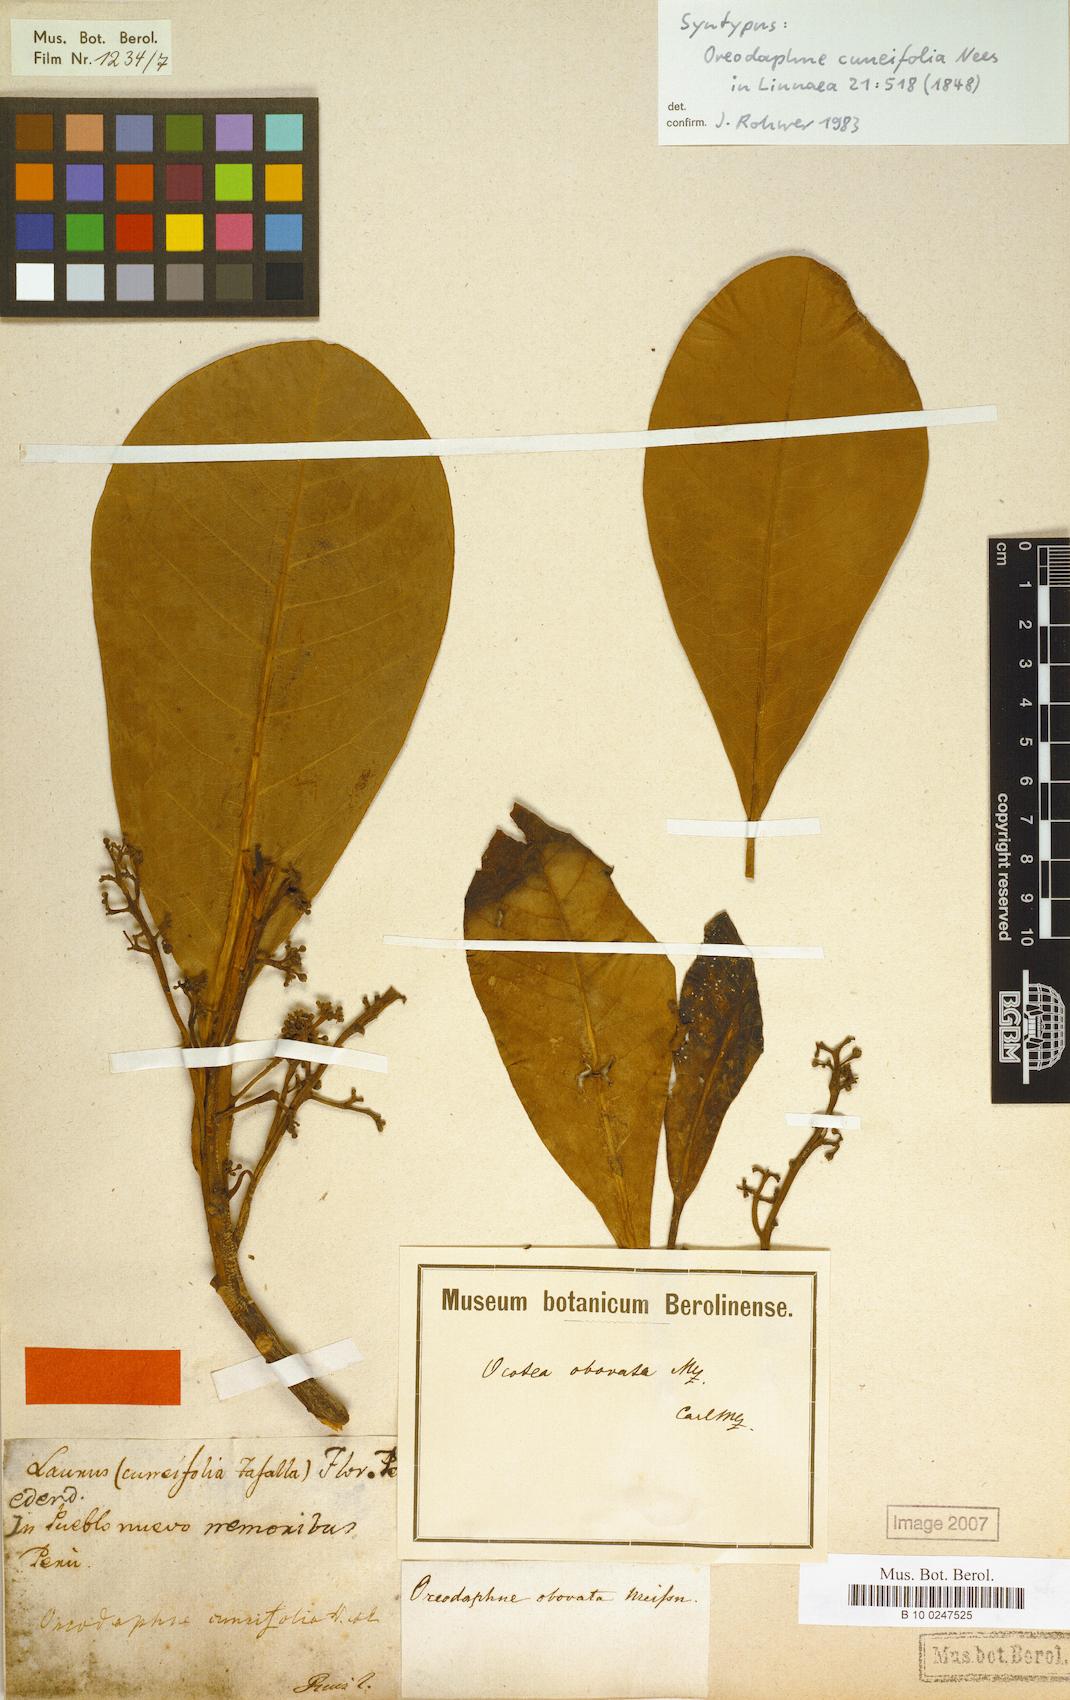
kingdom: Plantae
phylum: Tracheophyta
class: Magnoliopsida
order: Laurales
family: Lauraceae
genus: Ocotea
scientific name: Ocotea obovata
